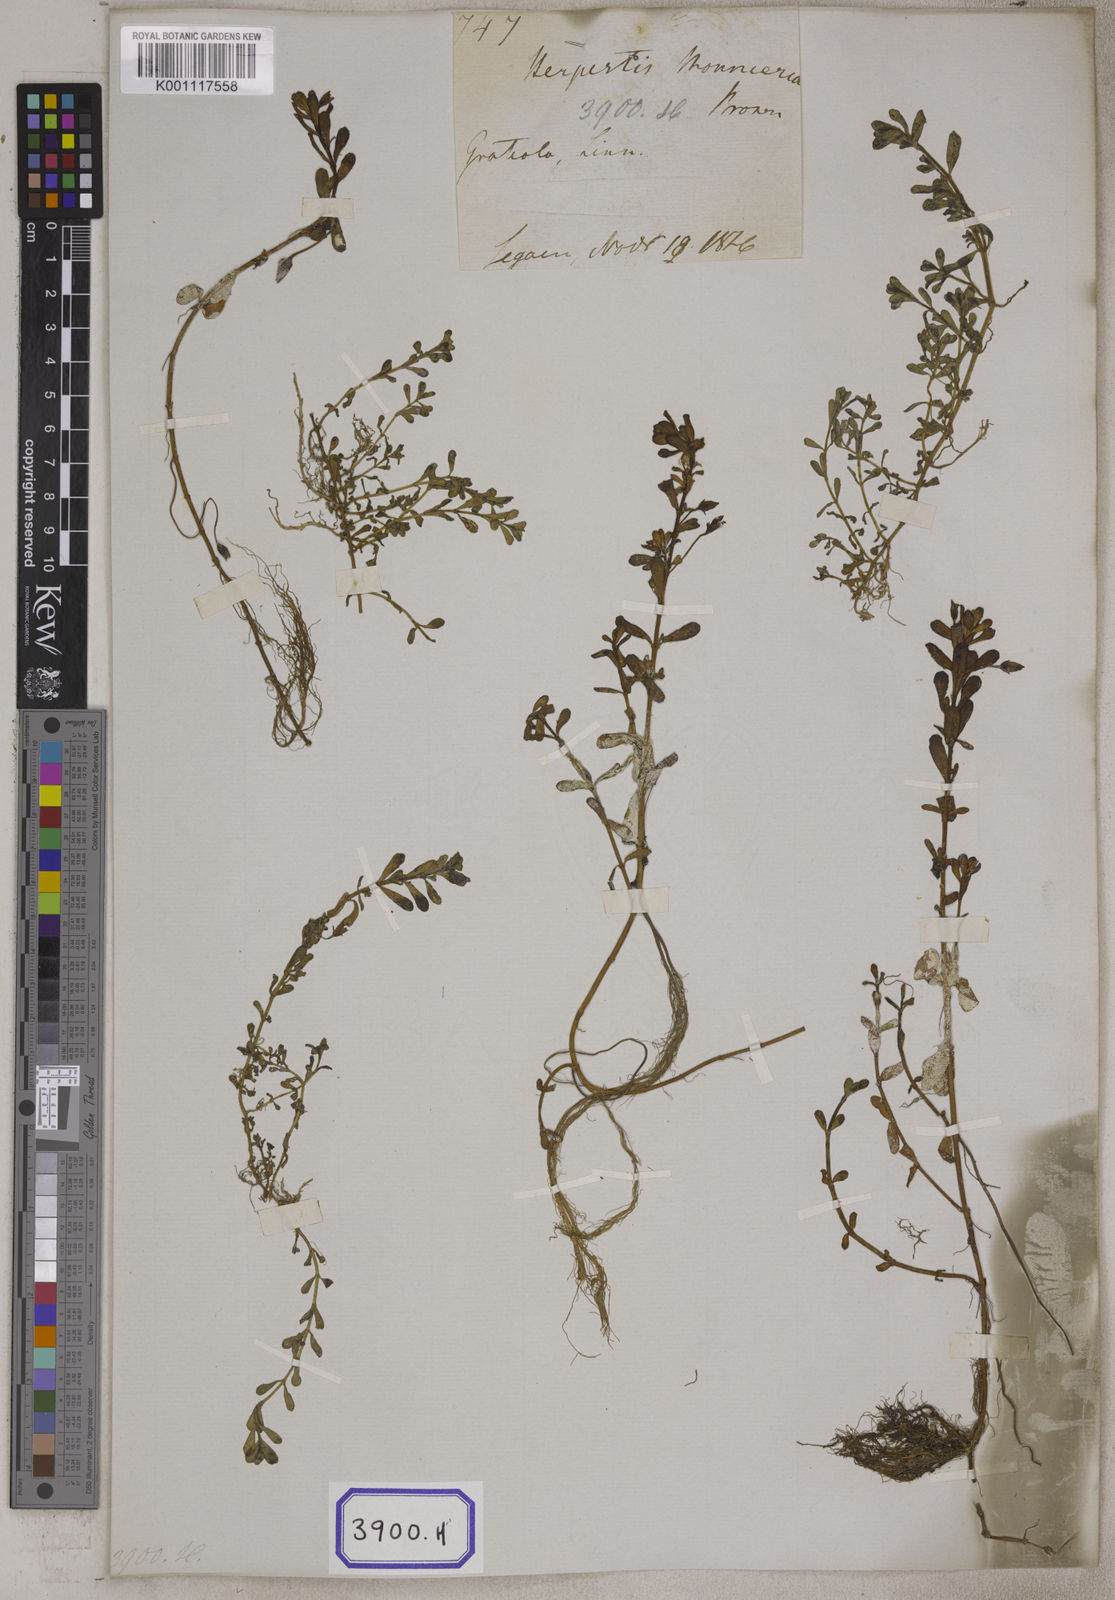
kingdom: Plantae
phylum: Tracheophyta
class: Magnoliopsida
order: Lamiales
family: Plantaginaceae
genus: Bacopa
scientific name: Bacopa monnieri
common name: Indian-pennywort
